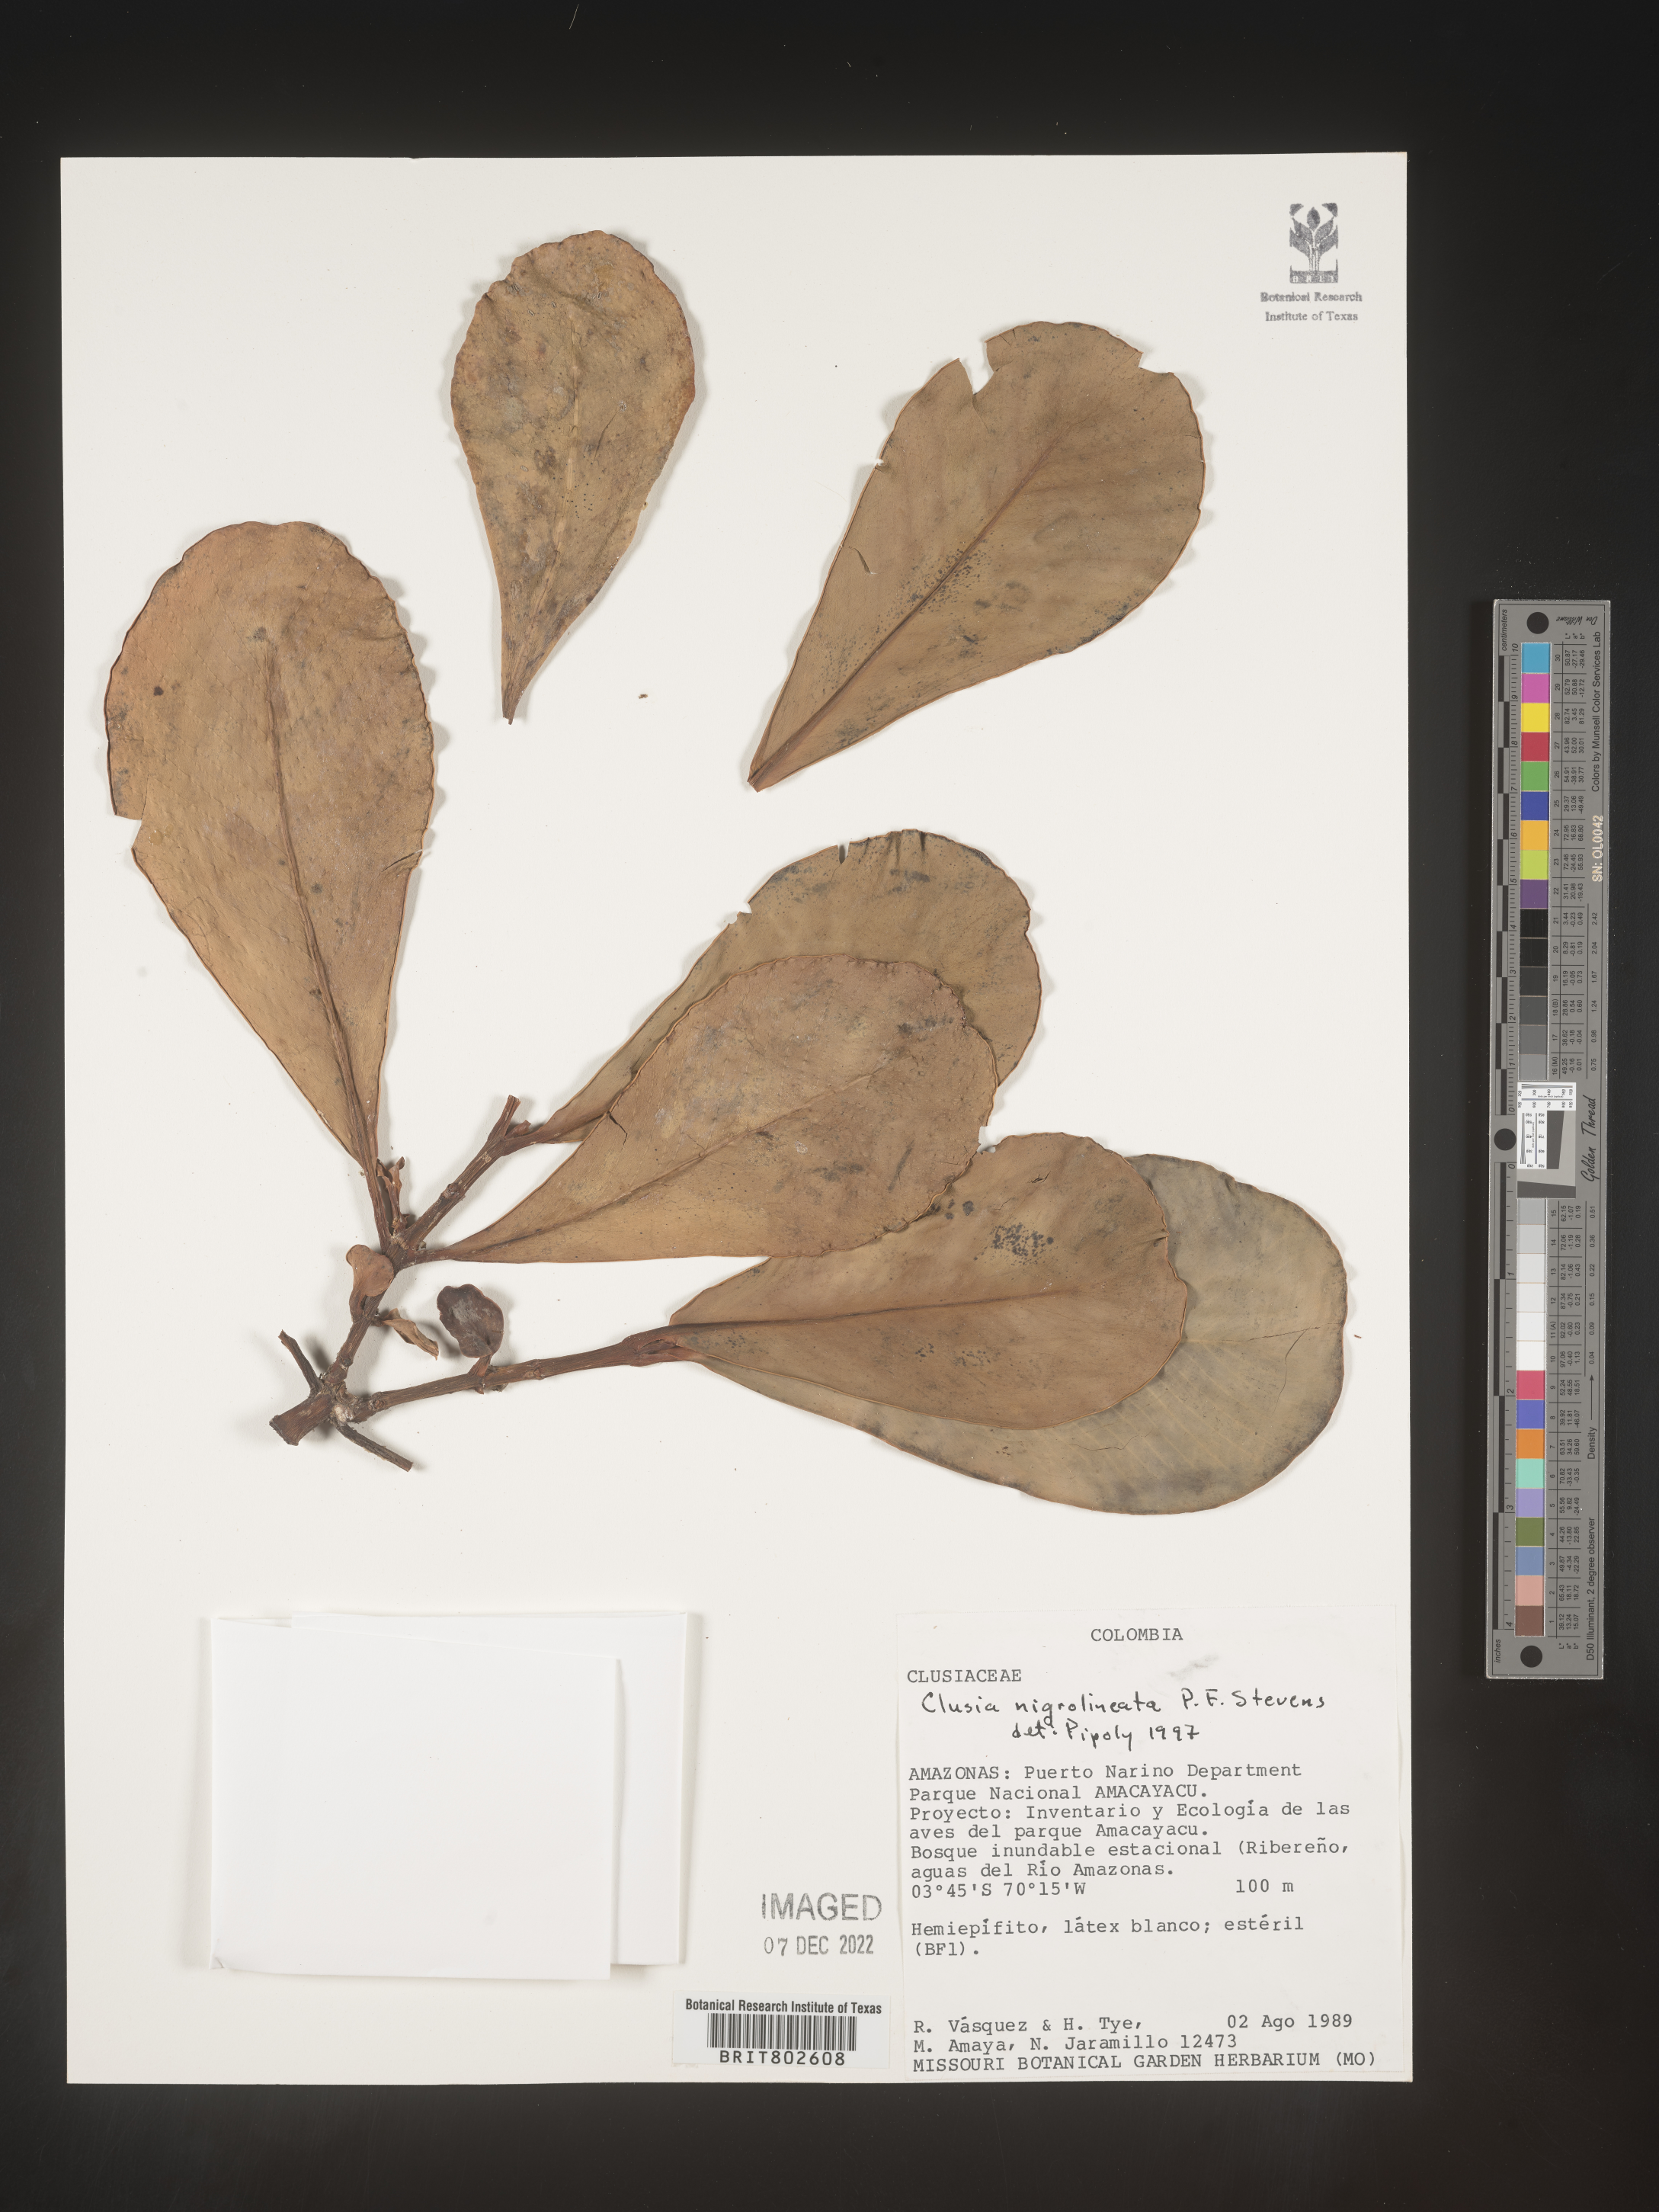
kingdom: Plantae
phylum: Tracheophyta
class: Magnoliopsida
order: Malpighiales
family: Clusiaceae
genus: Clusia
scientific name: Clusia nigrolineata
